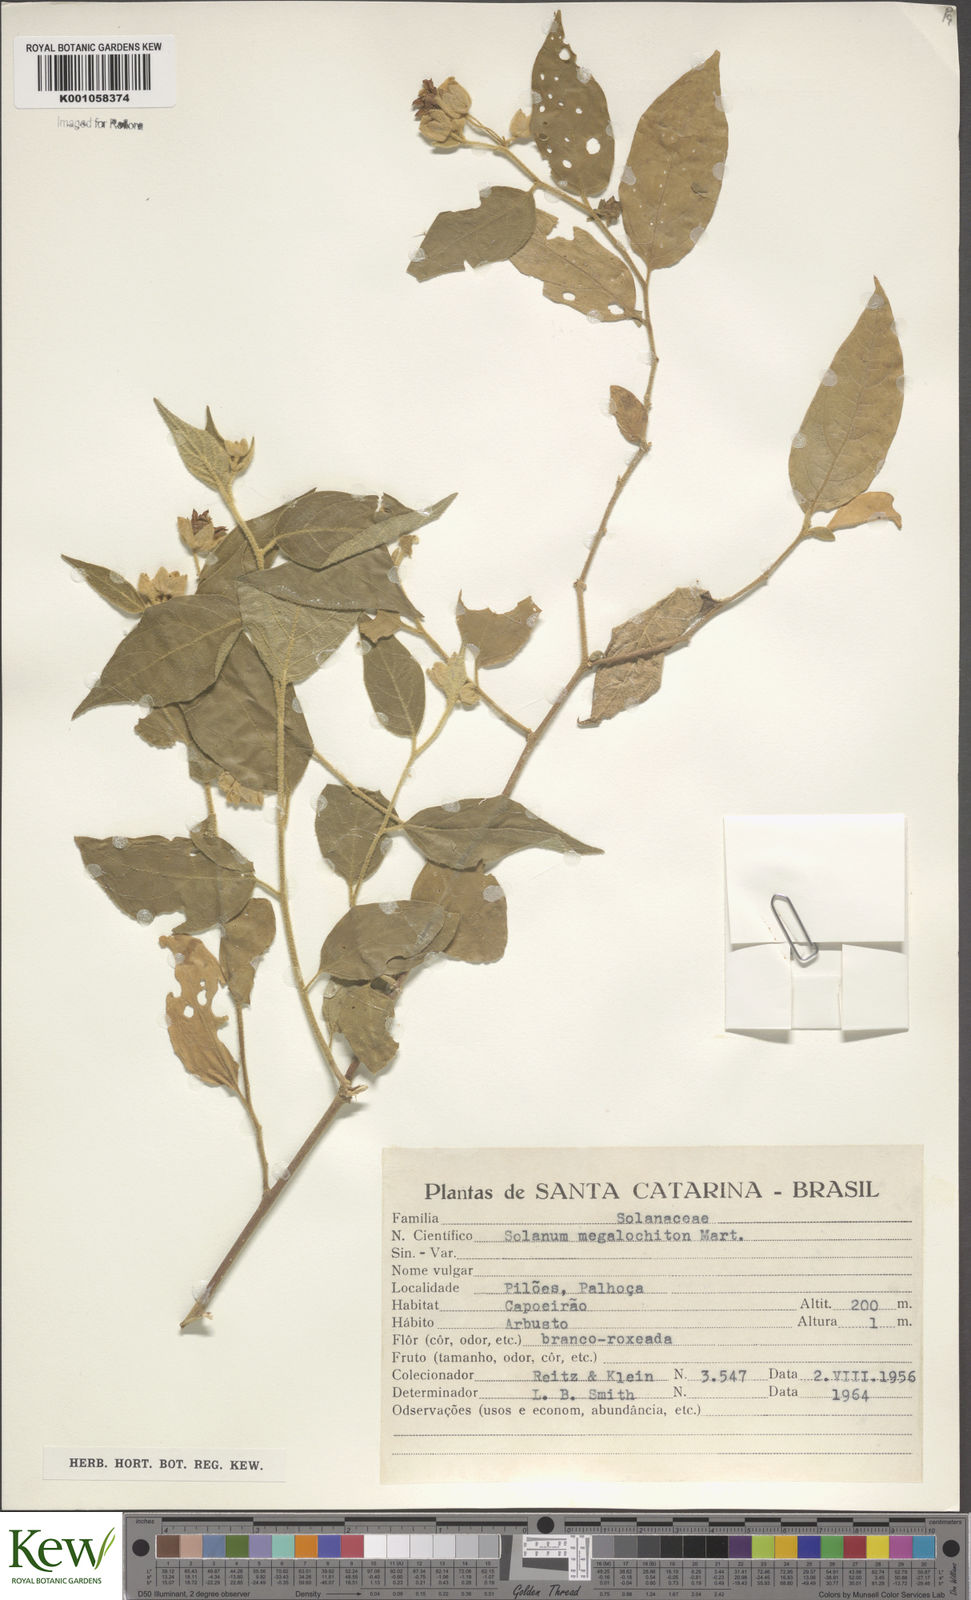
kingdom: Plantae
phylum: Tracheophyta
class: Magnoliopsida
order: Solanales
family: Solanaceae
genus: Solanum
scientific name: Solanum didymum
